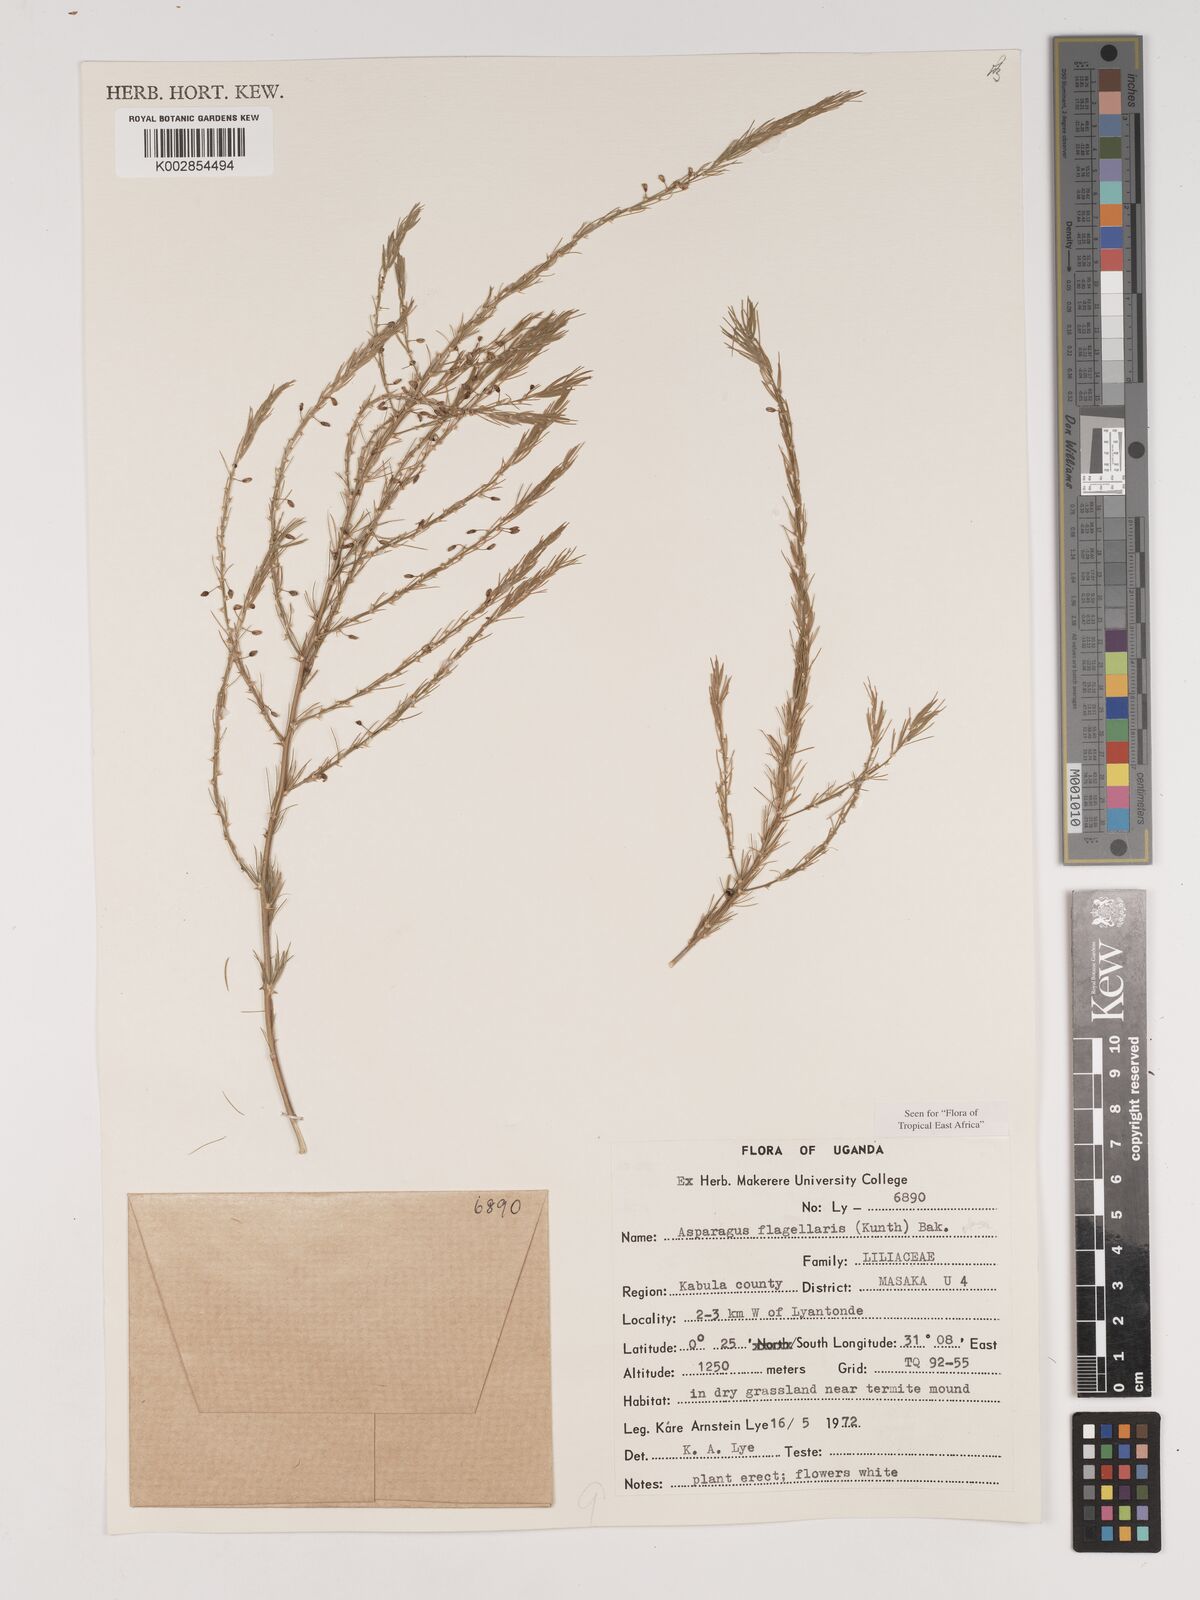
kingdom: Plantae
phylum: Tracheophyta
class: Liliopsida
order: Asparagales
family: Asparagaceae
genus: Asparagus
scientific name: Asparagus flagellaris
